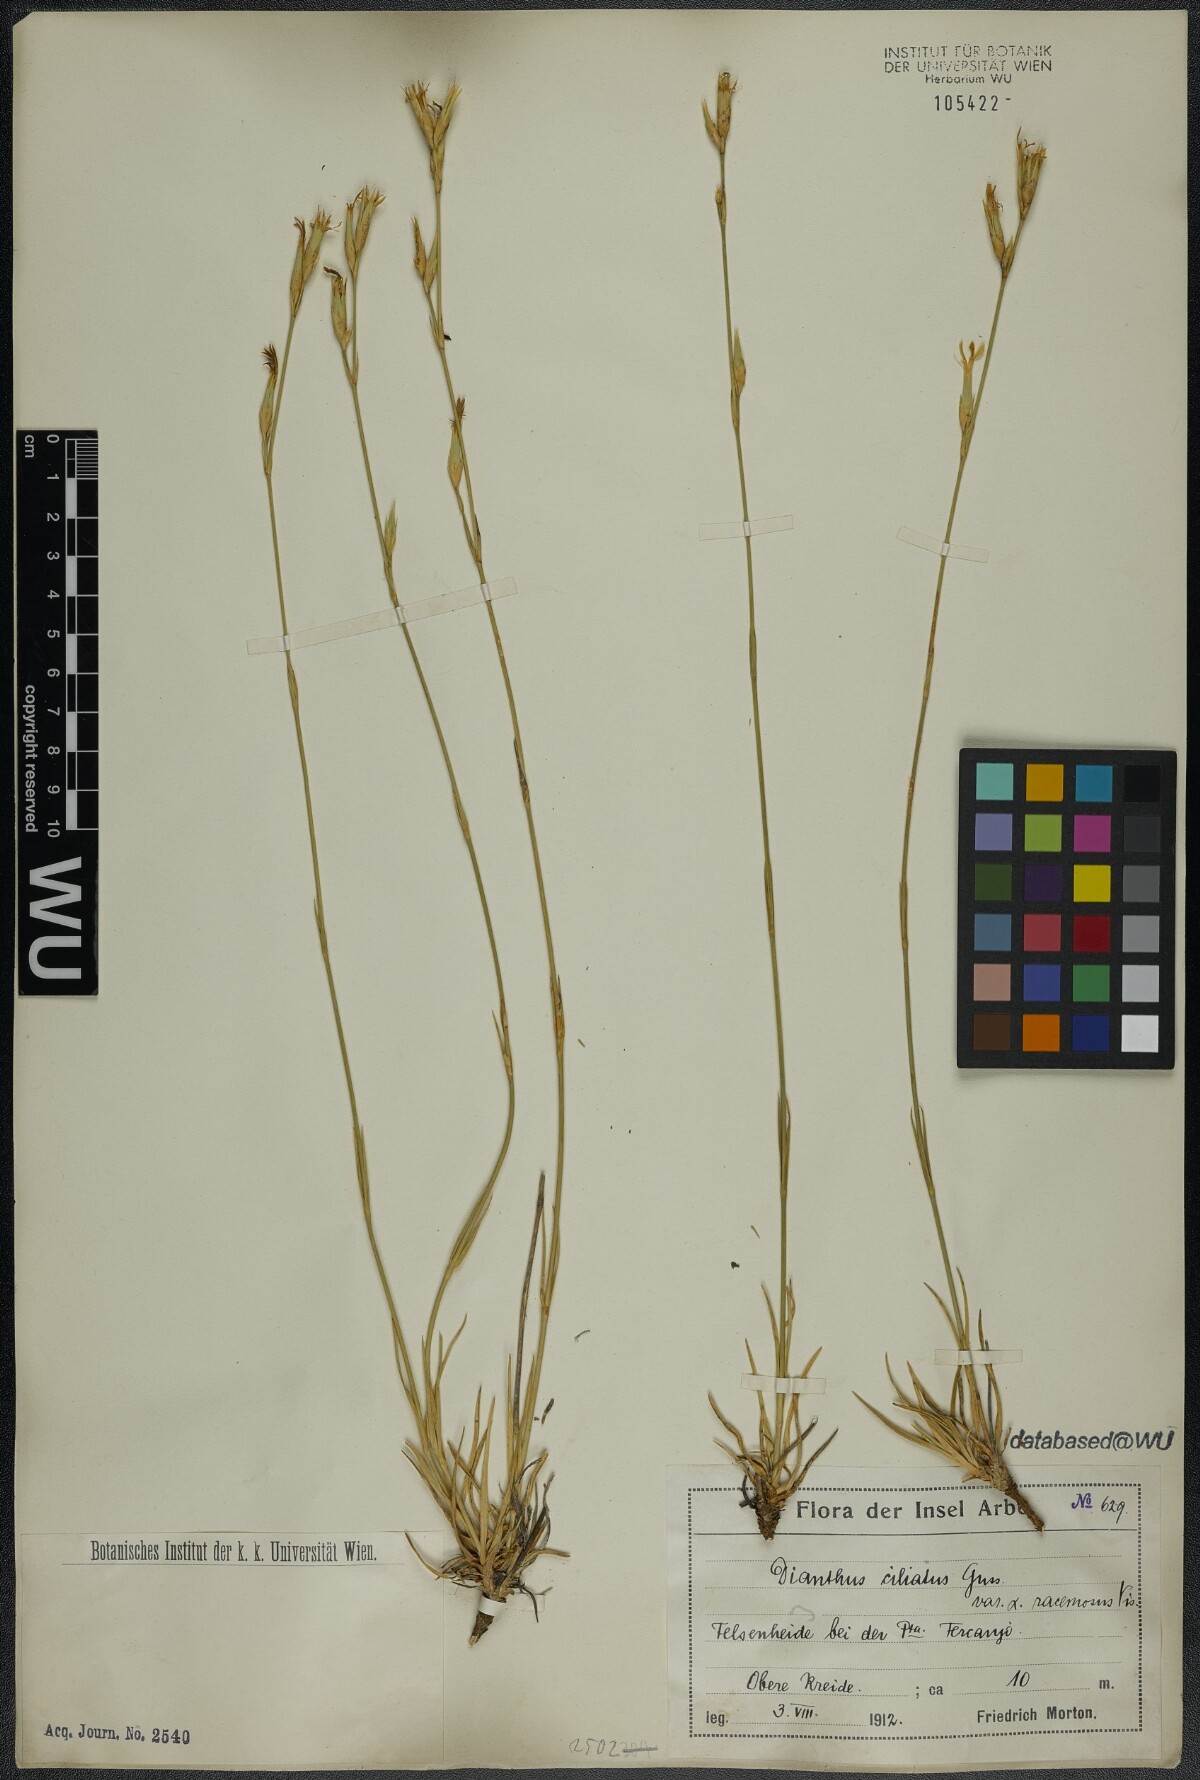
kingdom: Plantae
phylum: Tracheophyta
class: Magnoliopsida
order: Caryophyllales
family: Caryophyllaceae
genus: Dianthus
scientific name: Dianthus ciliatus
